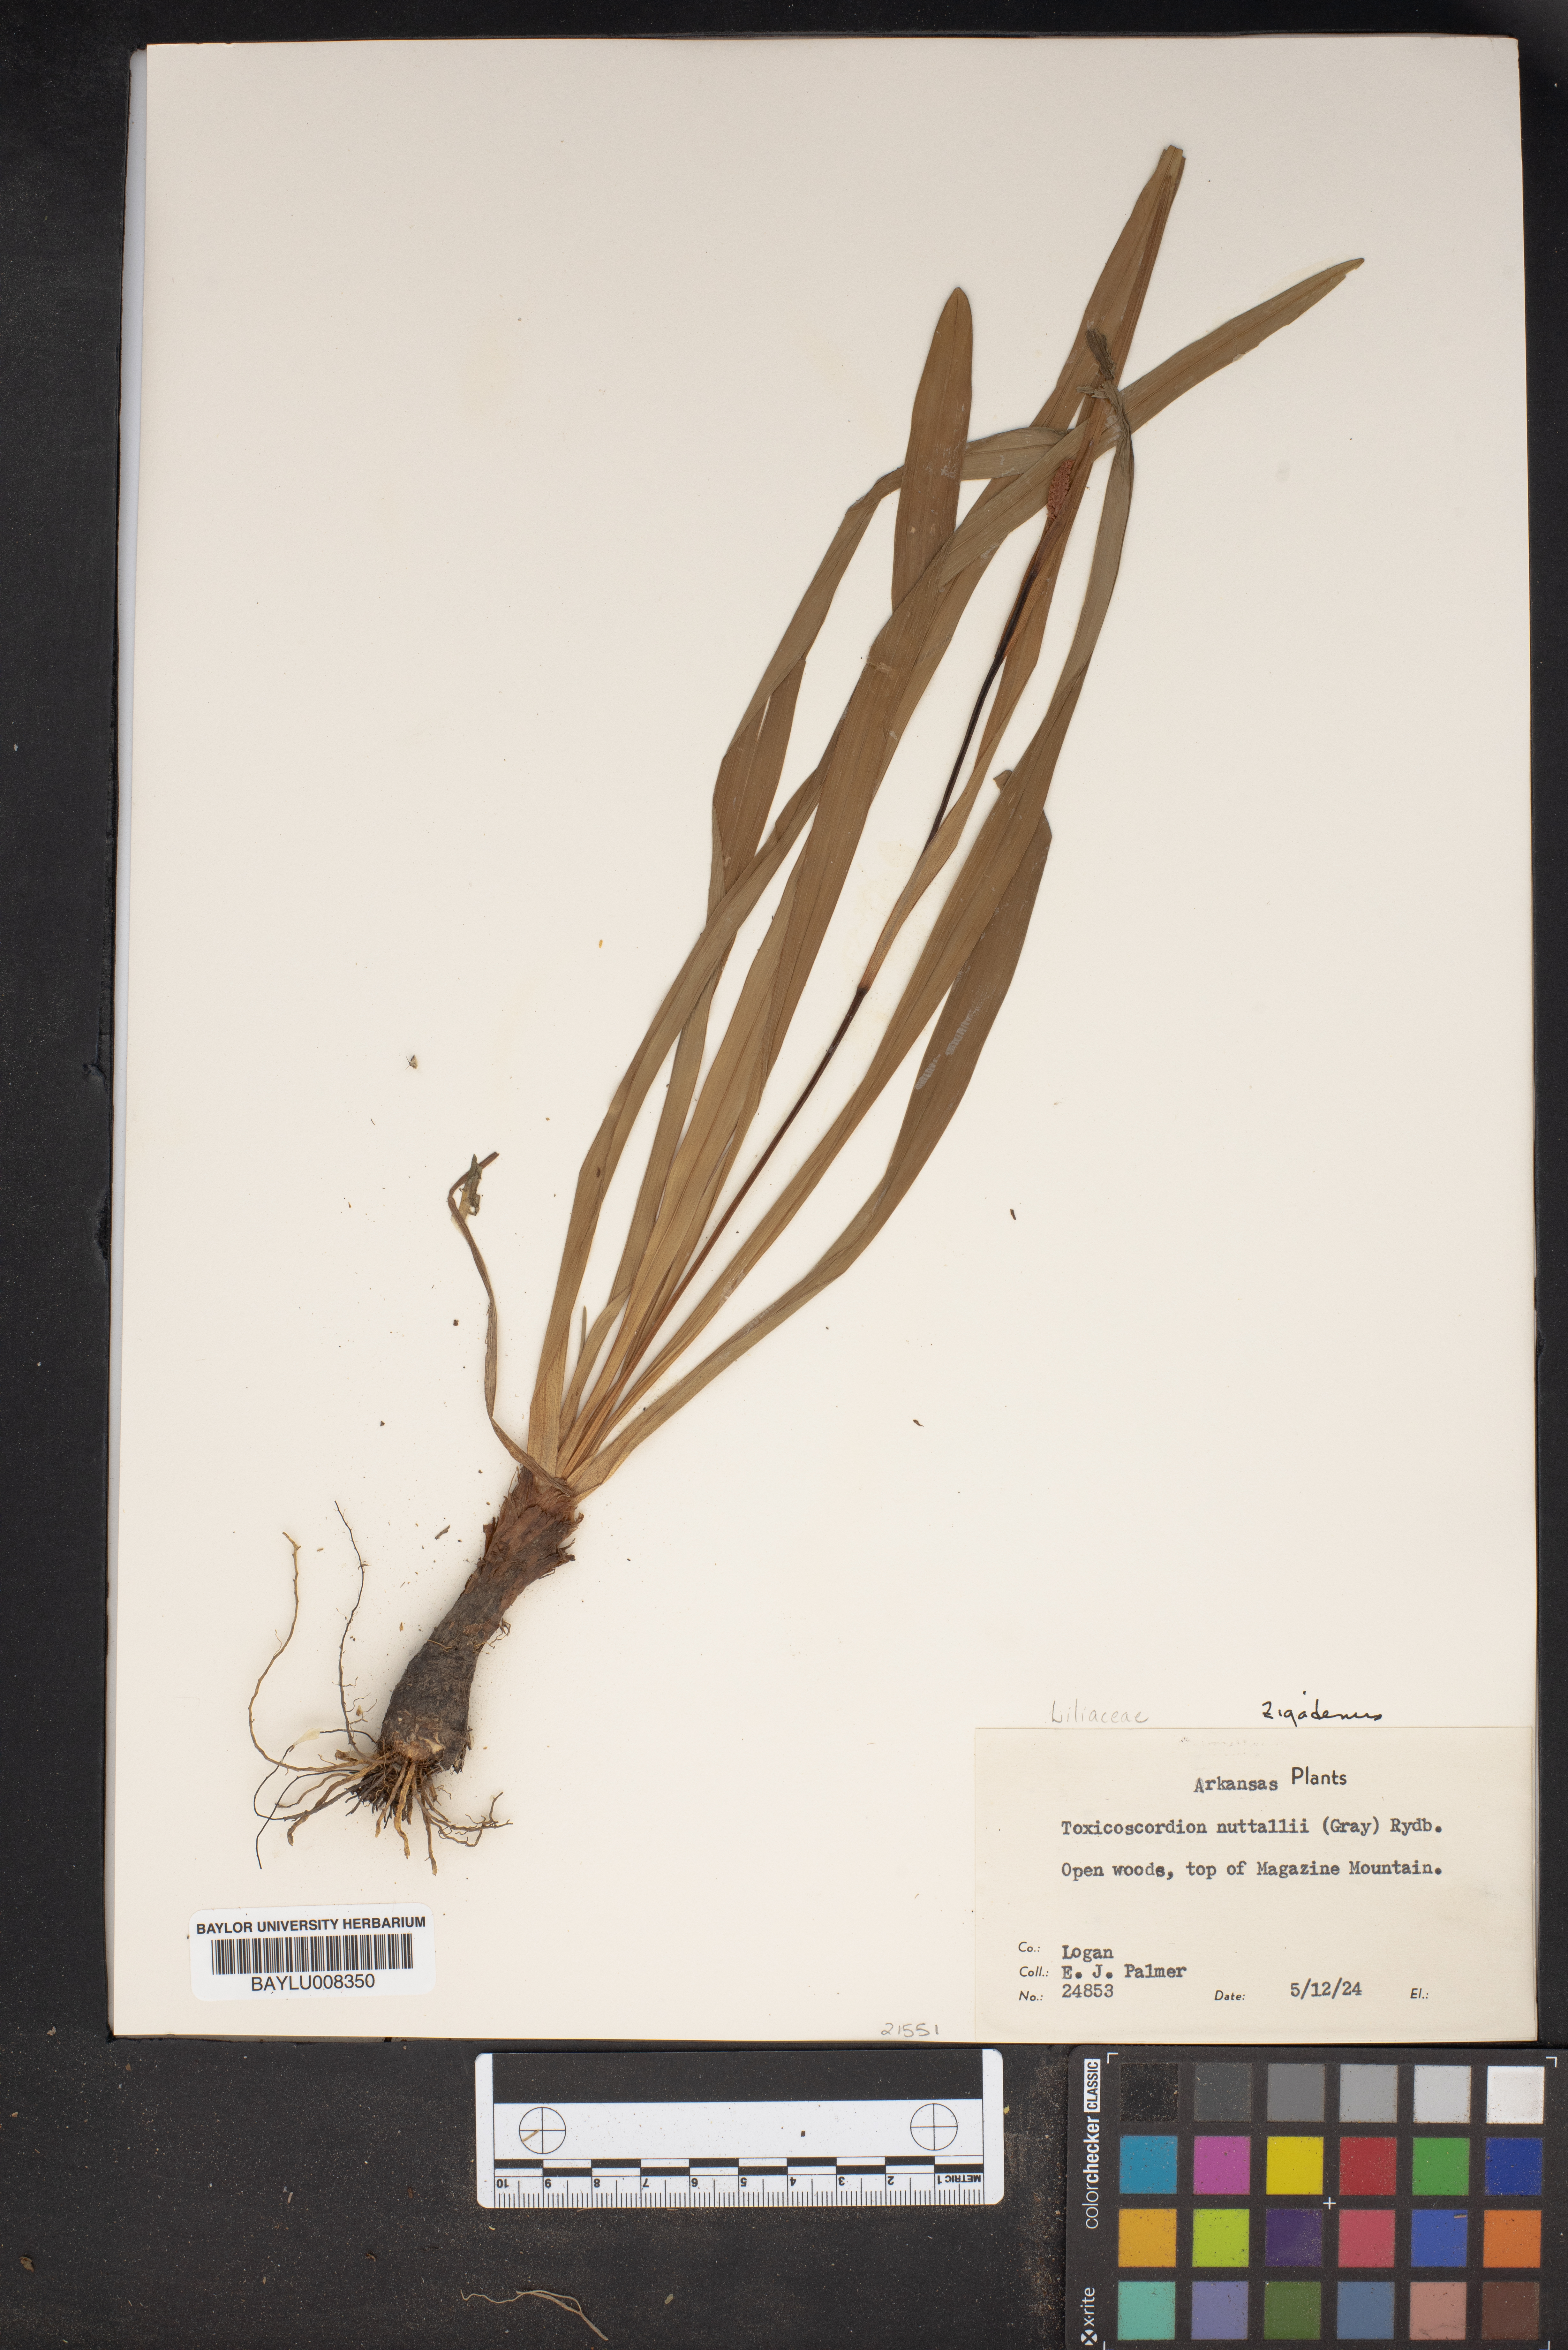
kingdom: Plantae
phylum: Tracheophyta
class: Liliopsida
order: Liliales
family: Melanthiaceae
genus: Toxicoscordion
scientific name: Toxicoscordion nuttallii
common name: Poison sego
